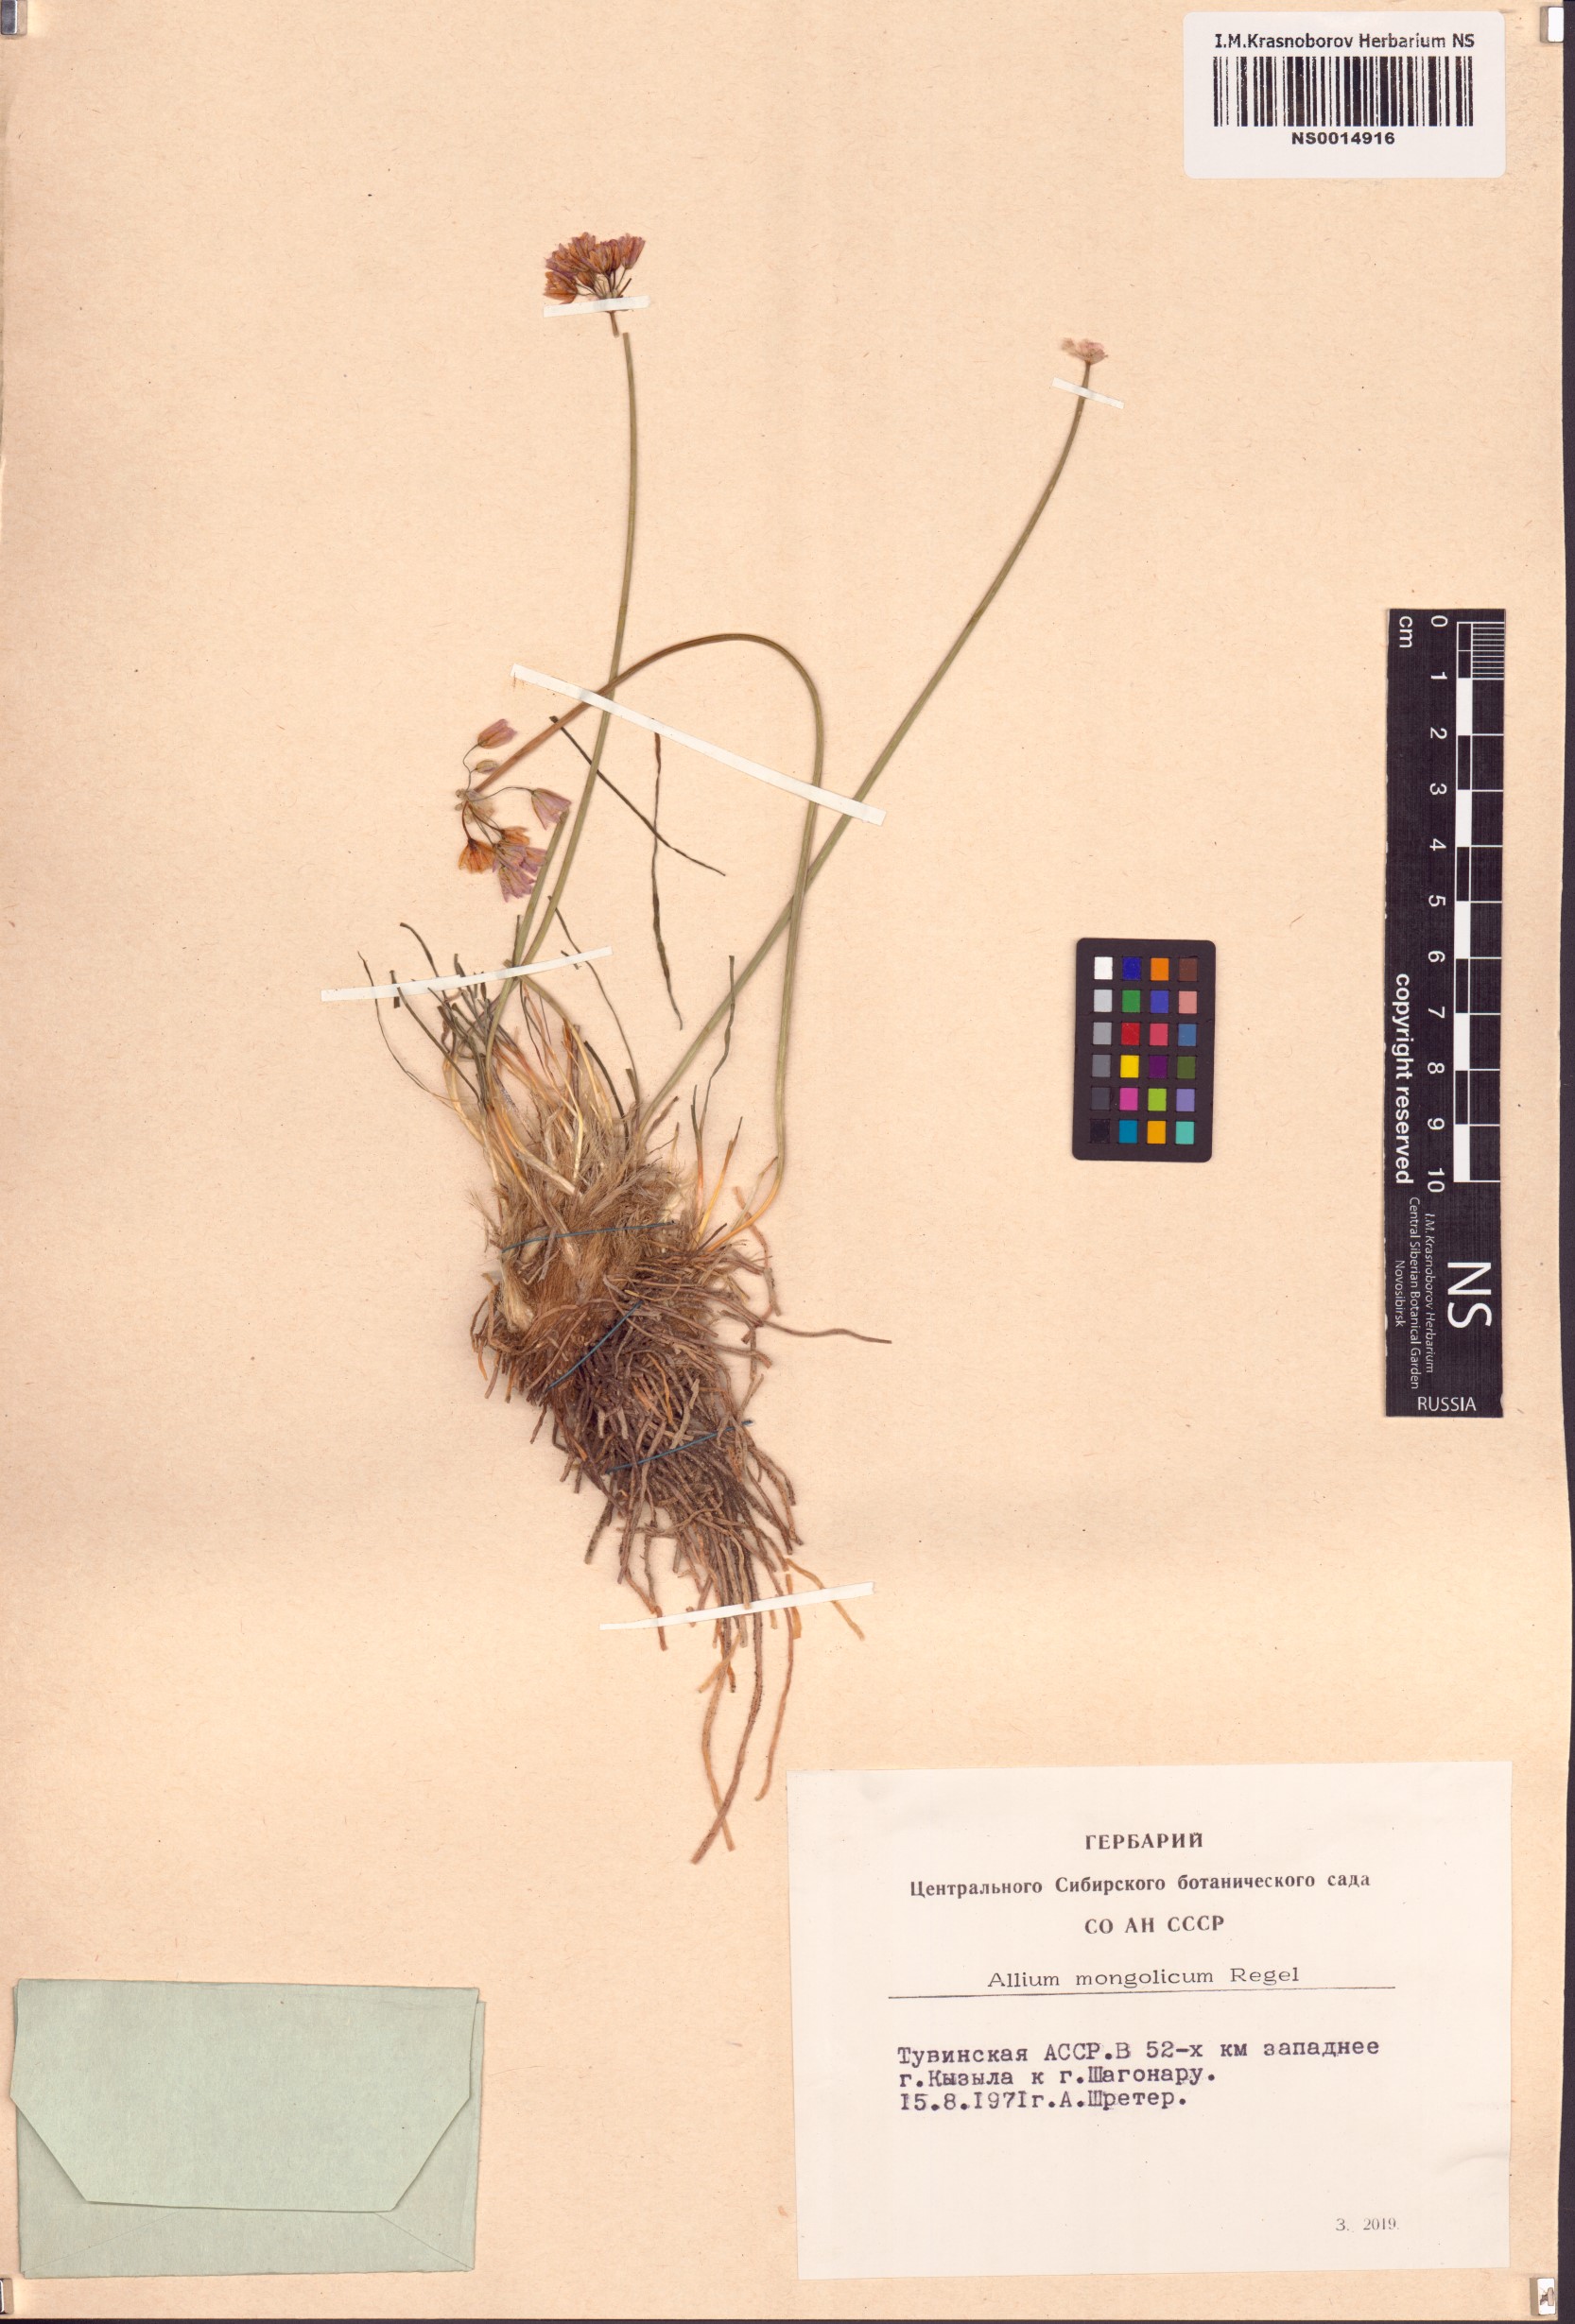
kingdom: Plantae
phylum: Tracheophyta
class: Liliopsida
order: Asparagales
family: Amaryllidaceae
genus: Allium
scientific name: Allium mongolicum
